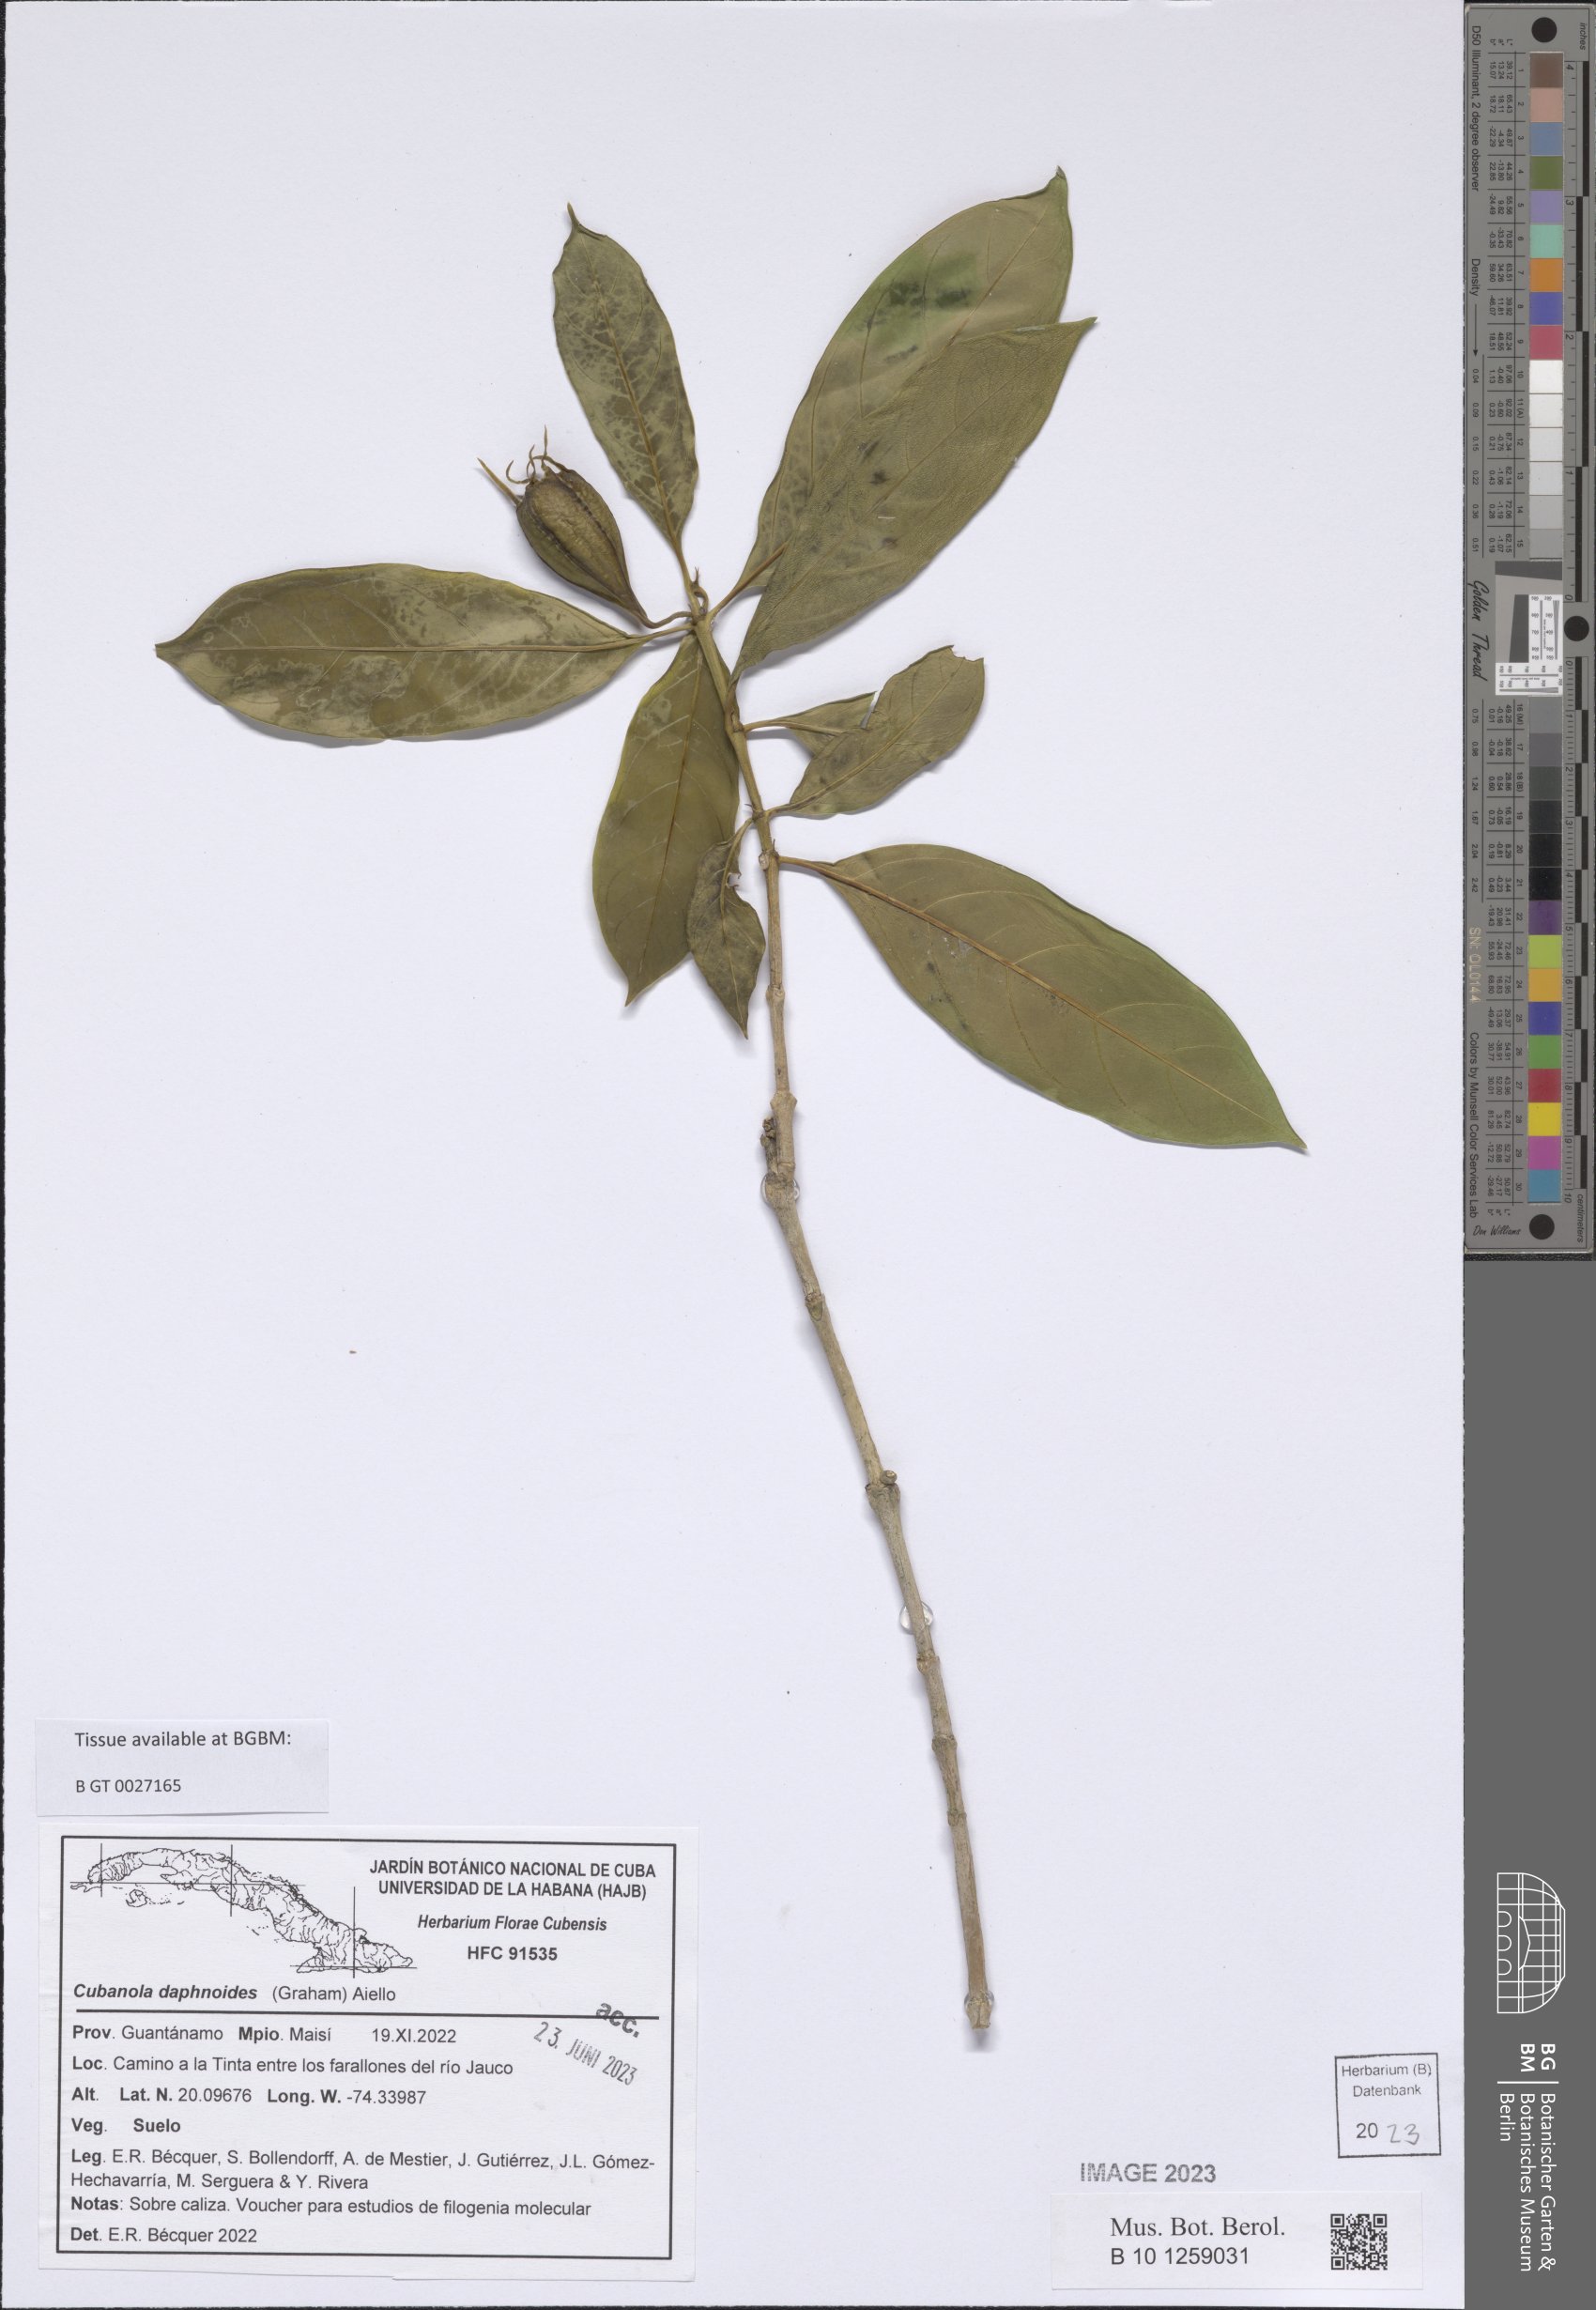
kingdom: Plantae
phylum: Tracheophyta
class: Magnoliopsida
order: Gentianales
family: Rubiaceae
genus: Cubanola
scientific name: Cubanola daphnoides
